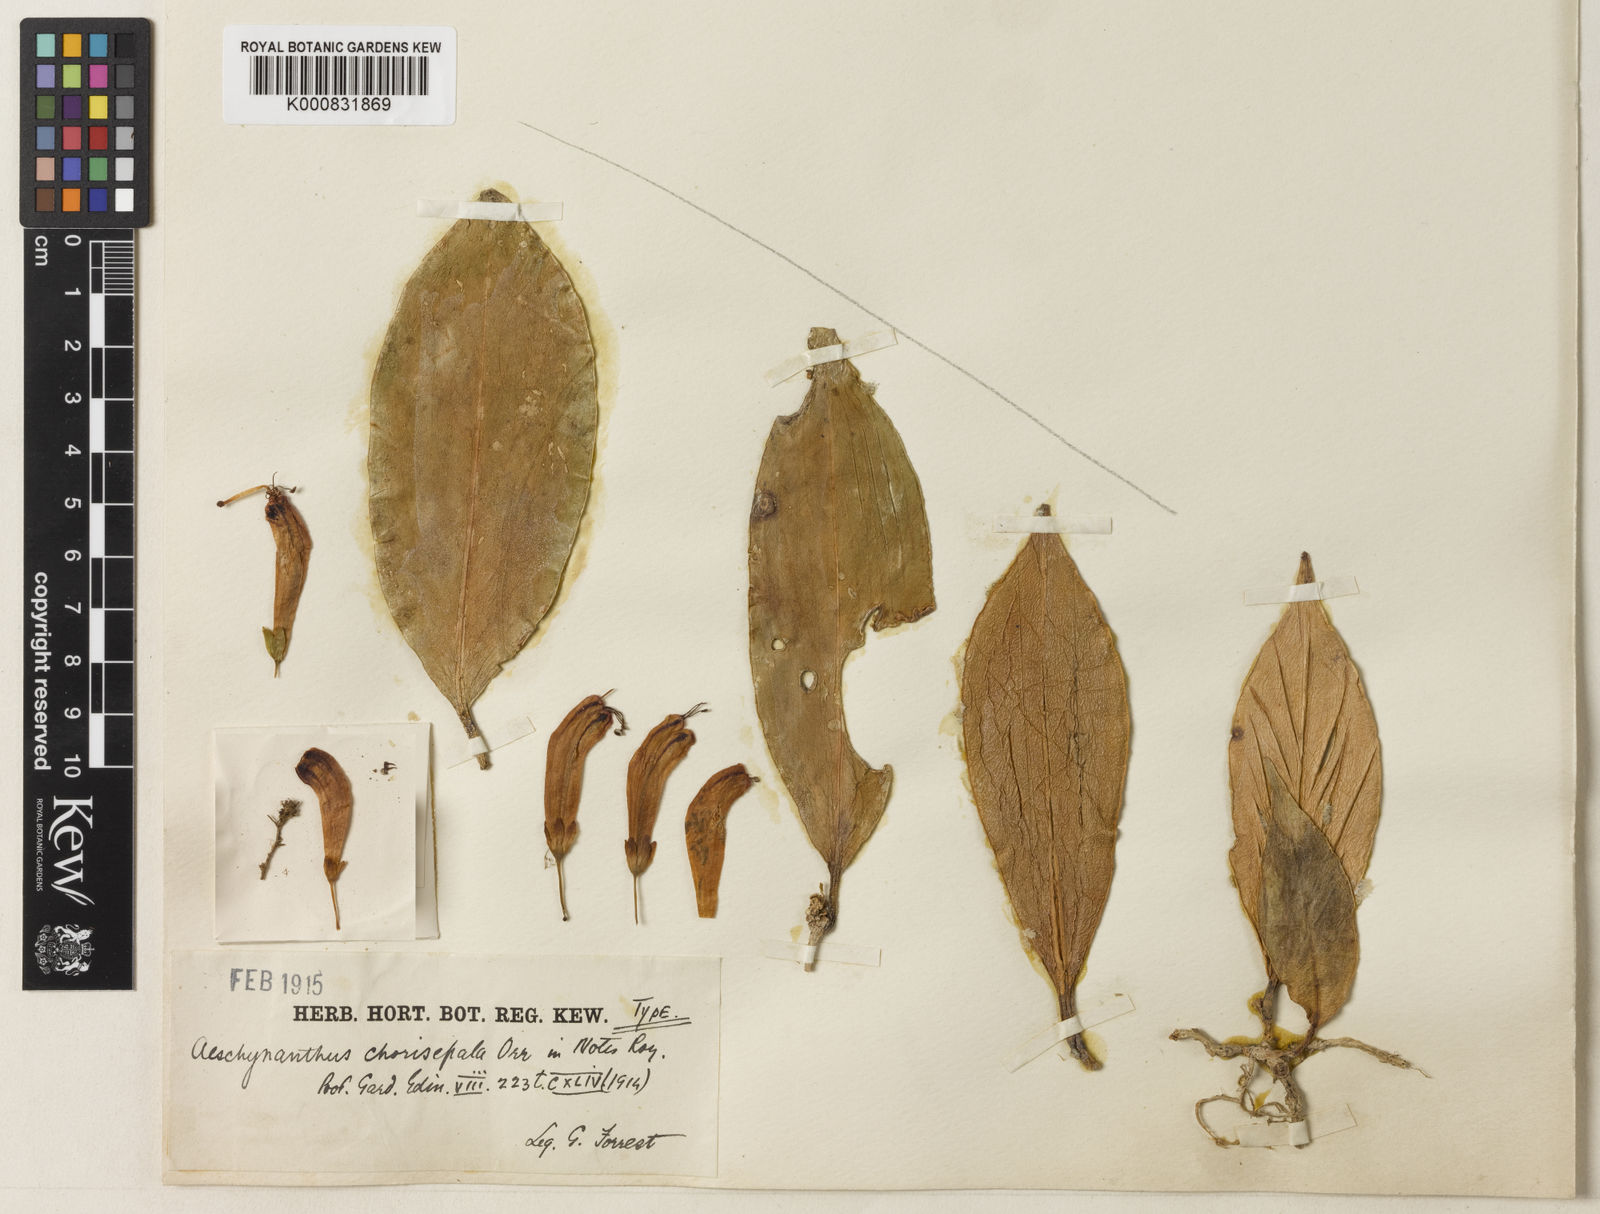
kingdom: Plantae
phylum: Tracheophyta
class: Magnoliopsida
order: Lamiales
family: Gesneriaceae
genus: Aeschynanthus
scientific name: Aeschynanthus lineatus
